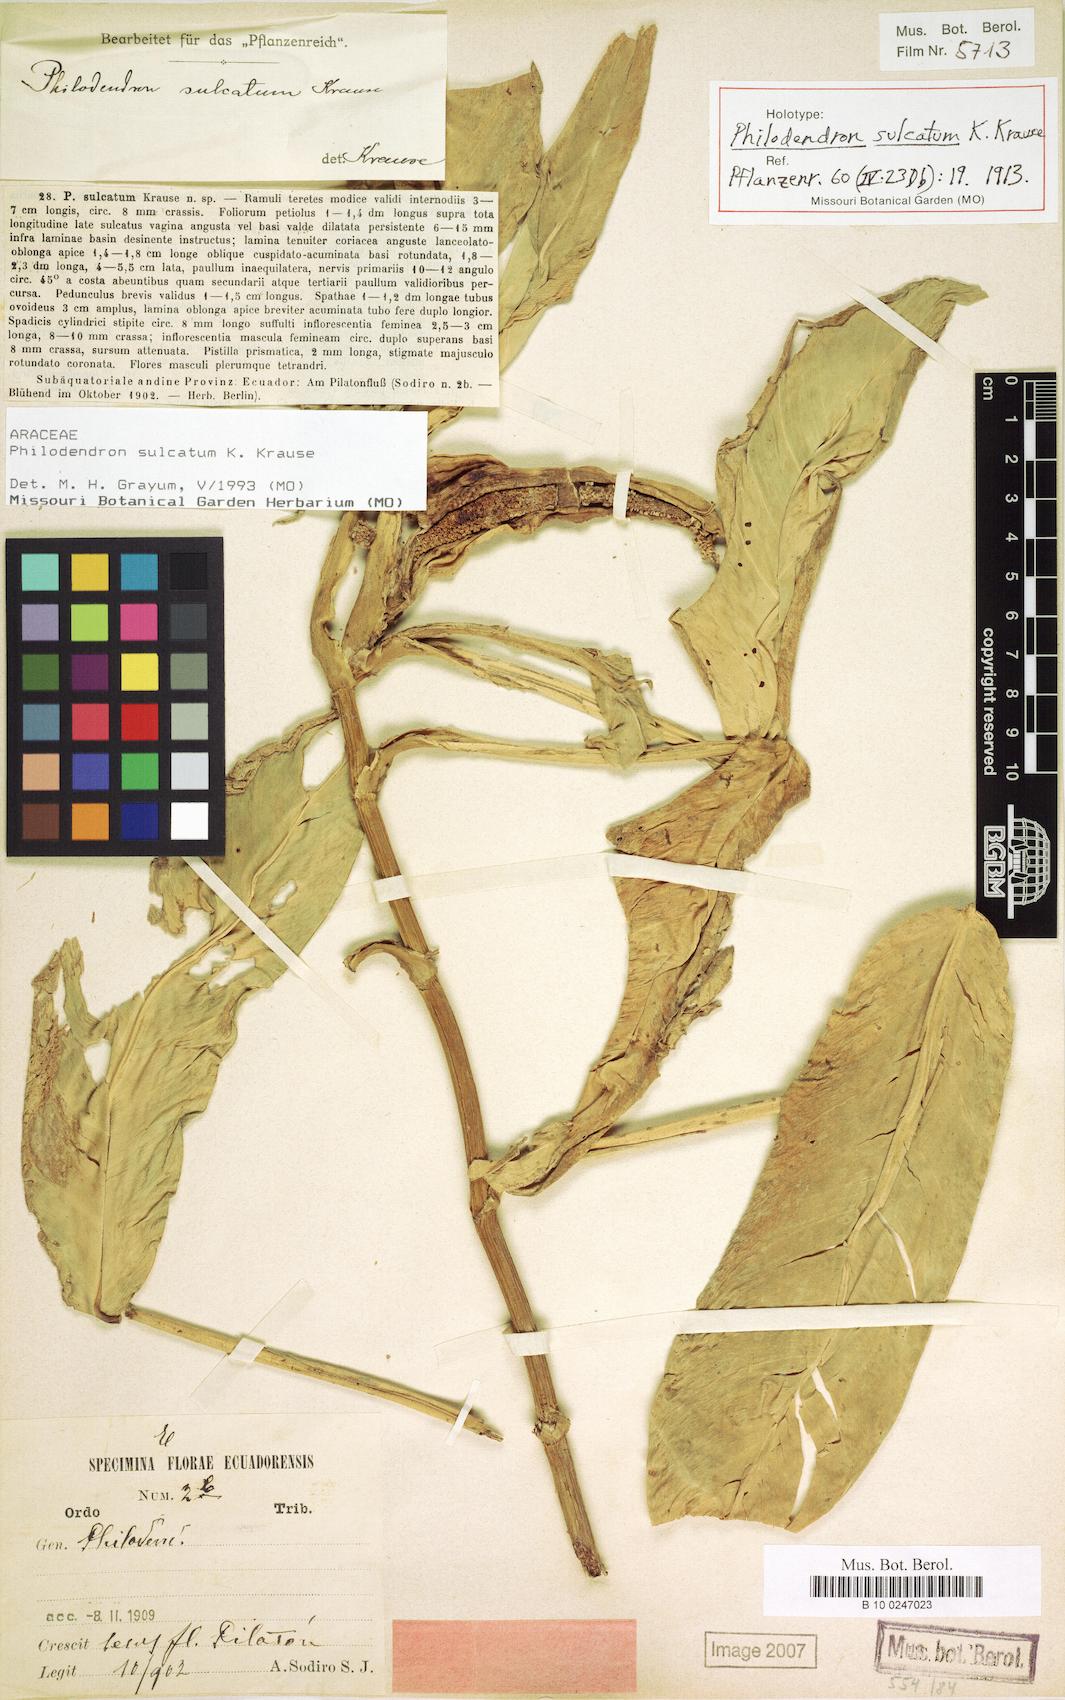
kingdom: Plantae
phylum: Tracheophyta
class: Liliopsida
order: Alismatales
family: Araceae
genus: Philodendron
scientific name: Philodendron sulcatum
